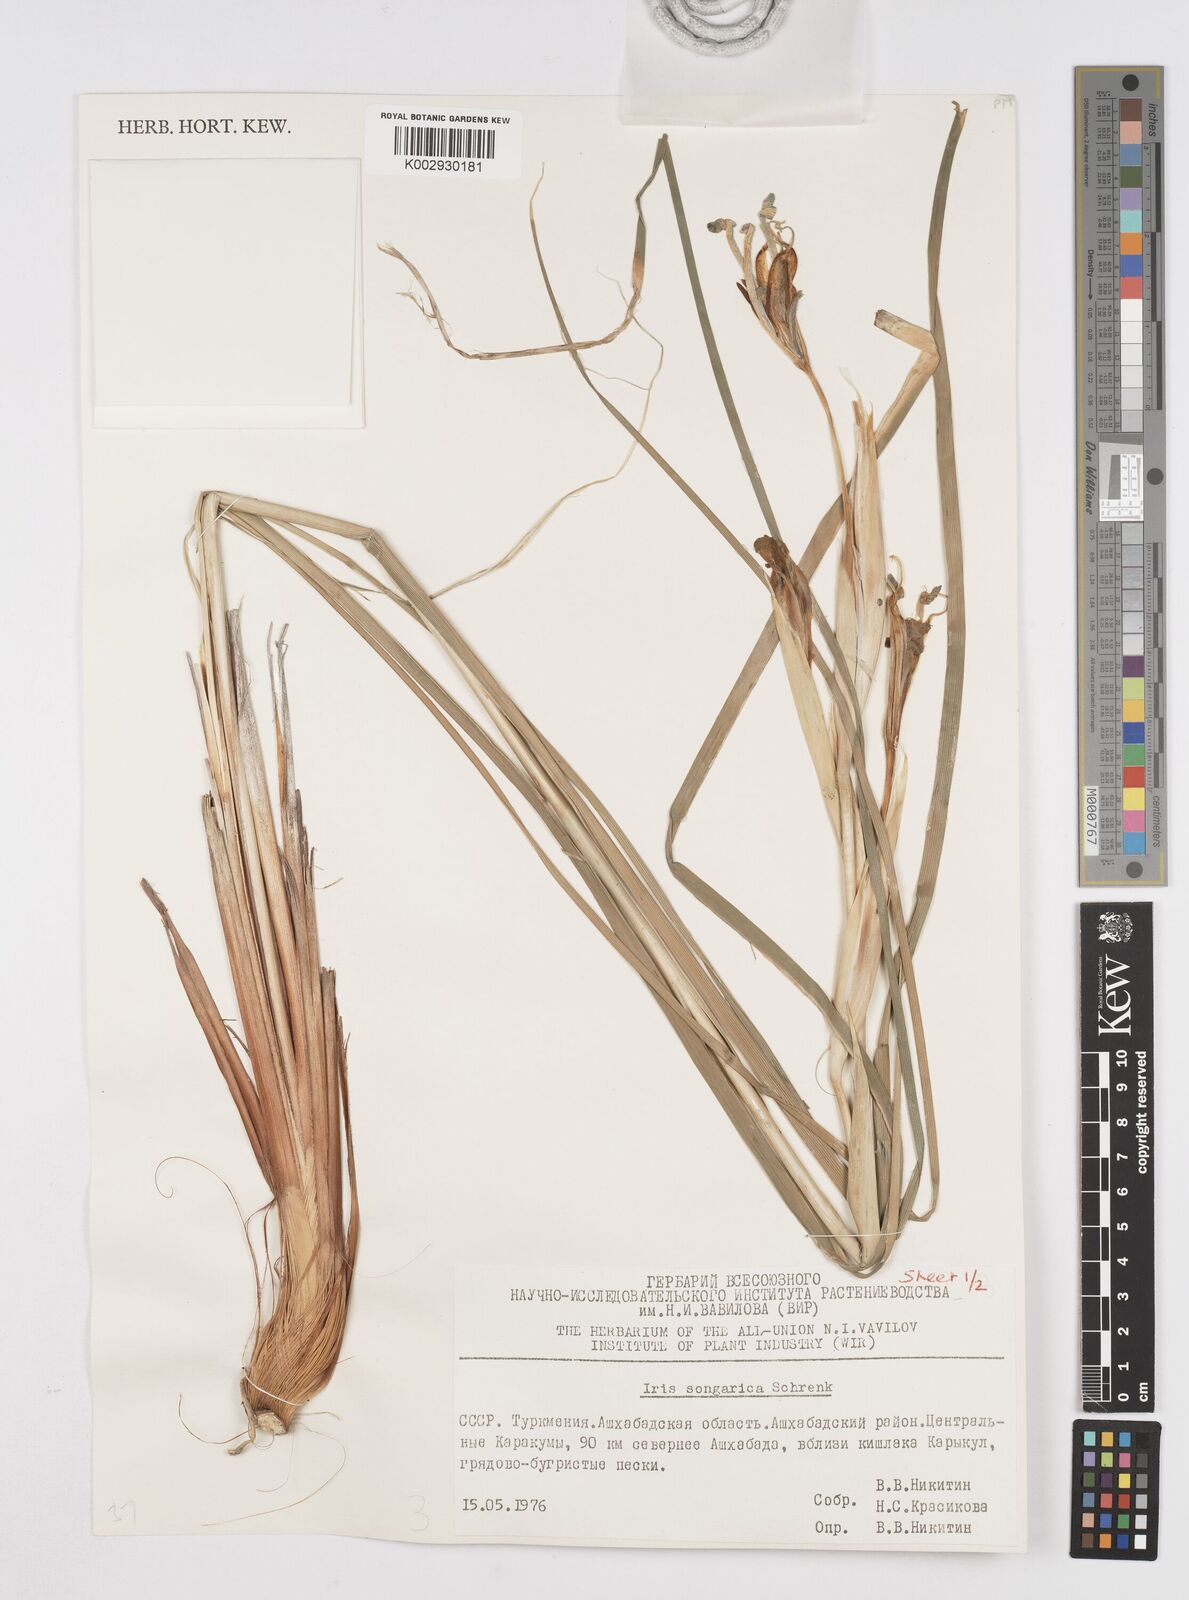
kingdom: Plantae
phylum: Tracheophyta
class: Liliopsida
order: Asparagales
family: Iridaceae
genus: Iris
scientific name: Iris songarica
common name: Songar iris
